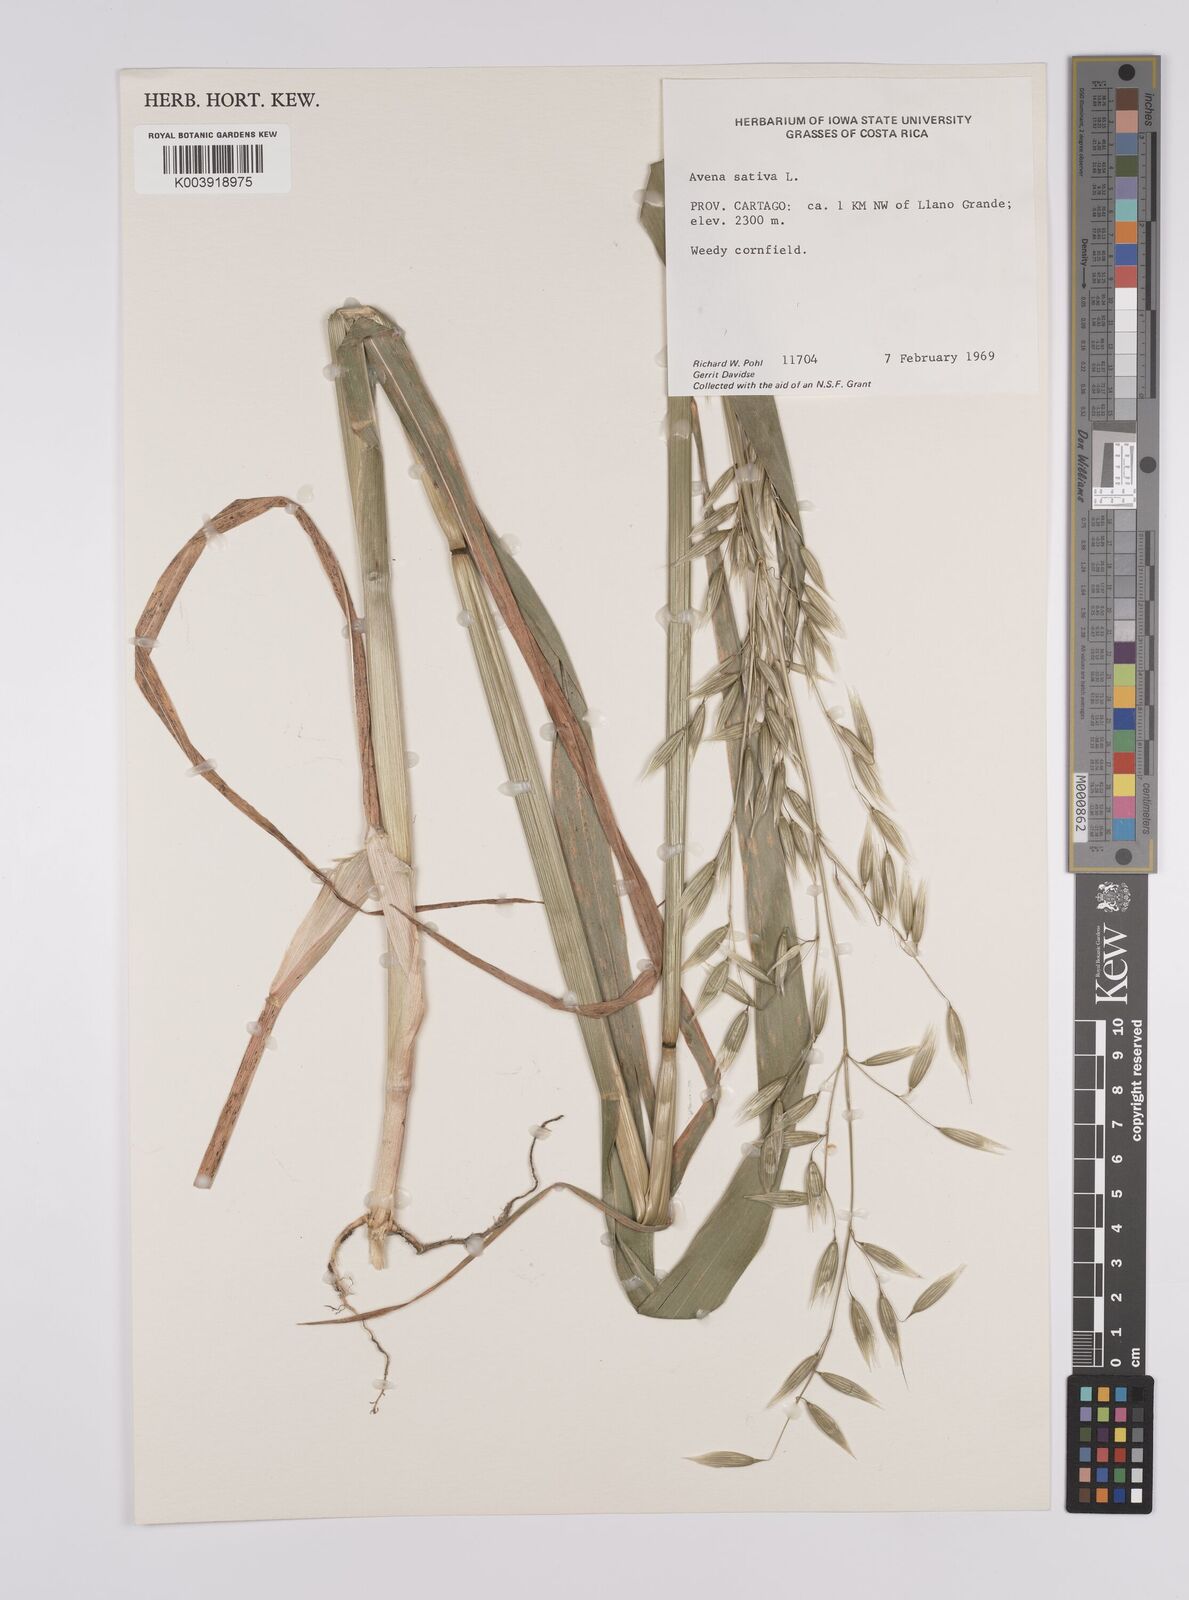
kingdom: Plantae
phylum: Tracheophyta
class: Liliopsida
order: Poales
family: Poaceae
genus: Avena
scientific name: Avena sativa
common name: Oat
